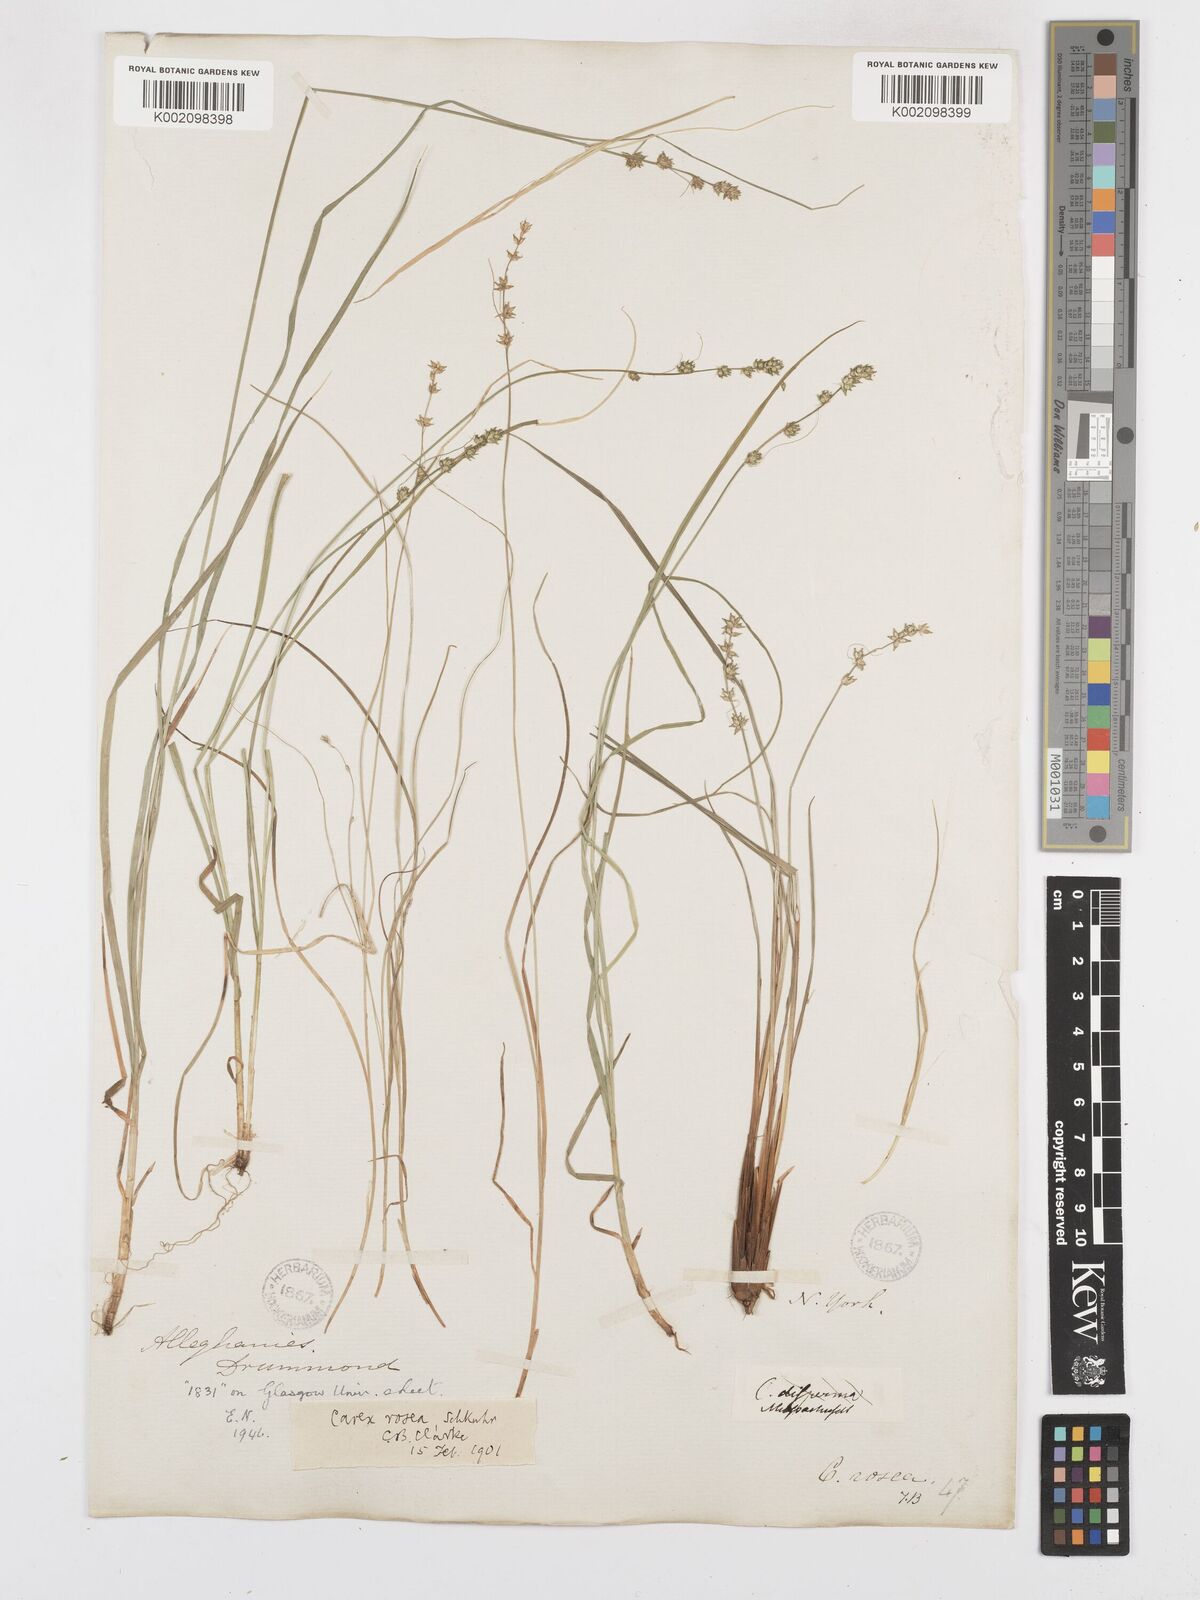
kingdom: Plantae
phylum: Tracheophyta
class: Liliopsida
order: Poales
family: Cyperaceae
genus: Carex
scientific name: Carex rosea
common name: Curly-styled wood sedge
